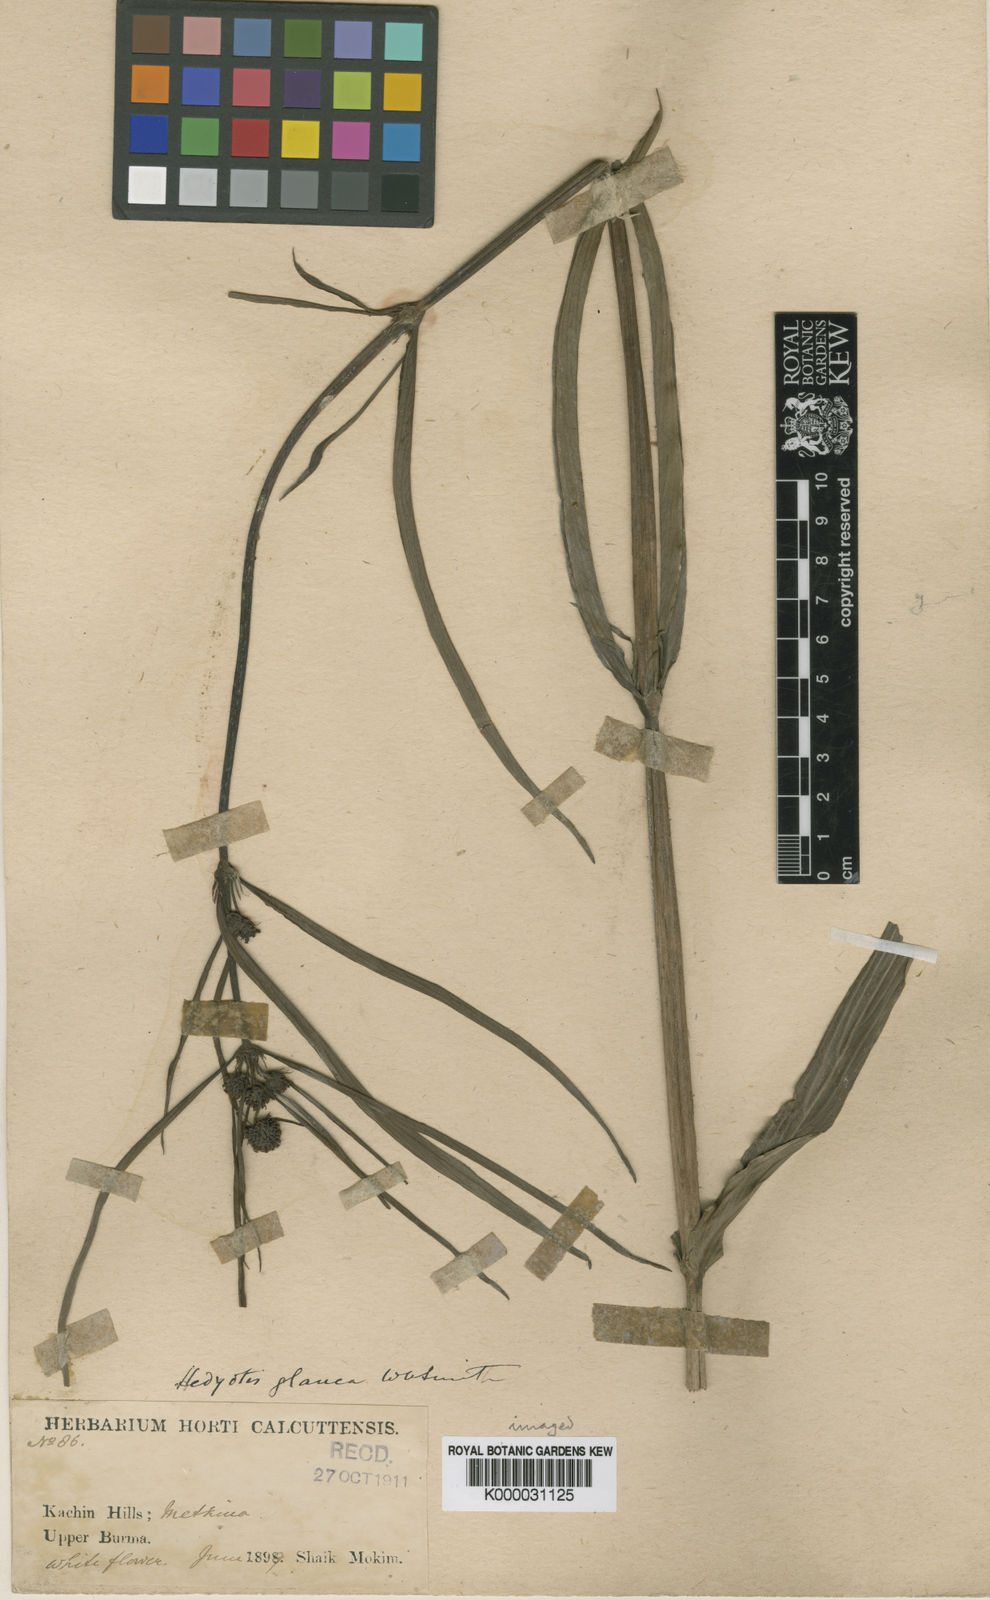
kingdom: Plantae
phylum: Tracheophyta
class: Magnoliopsida
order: Gentianales
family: Rubiaceae
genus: Knoxia
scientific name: Knoxia roxburghii
